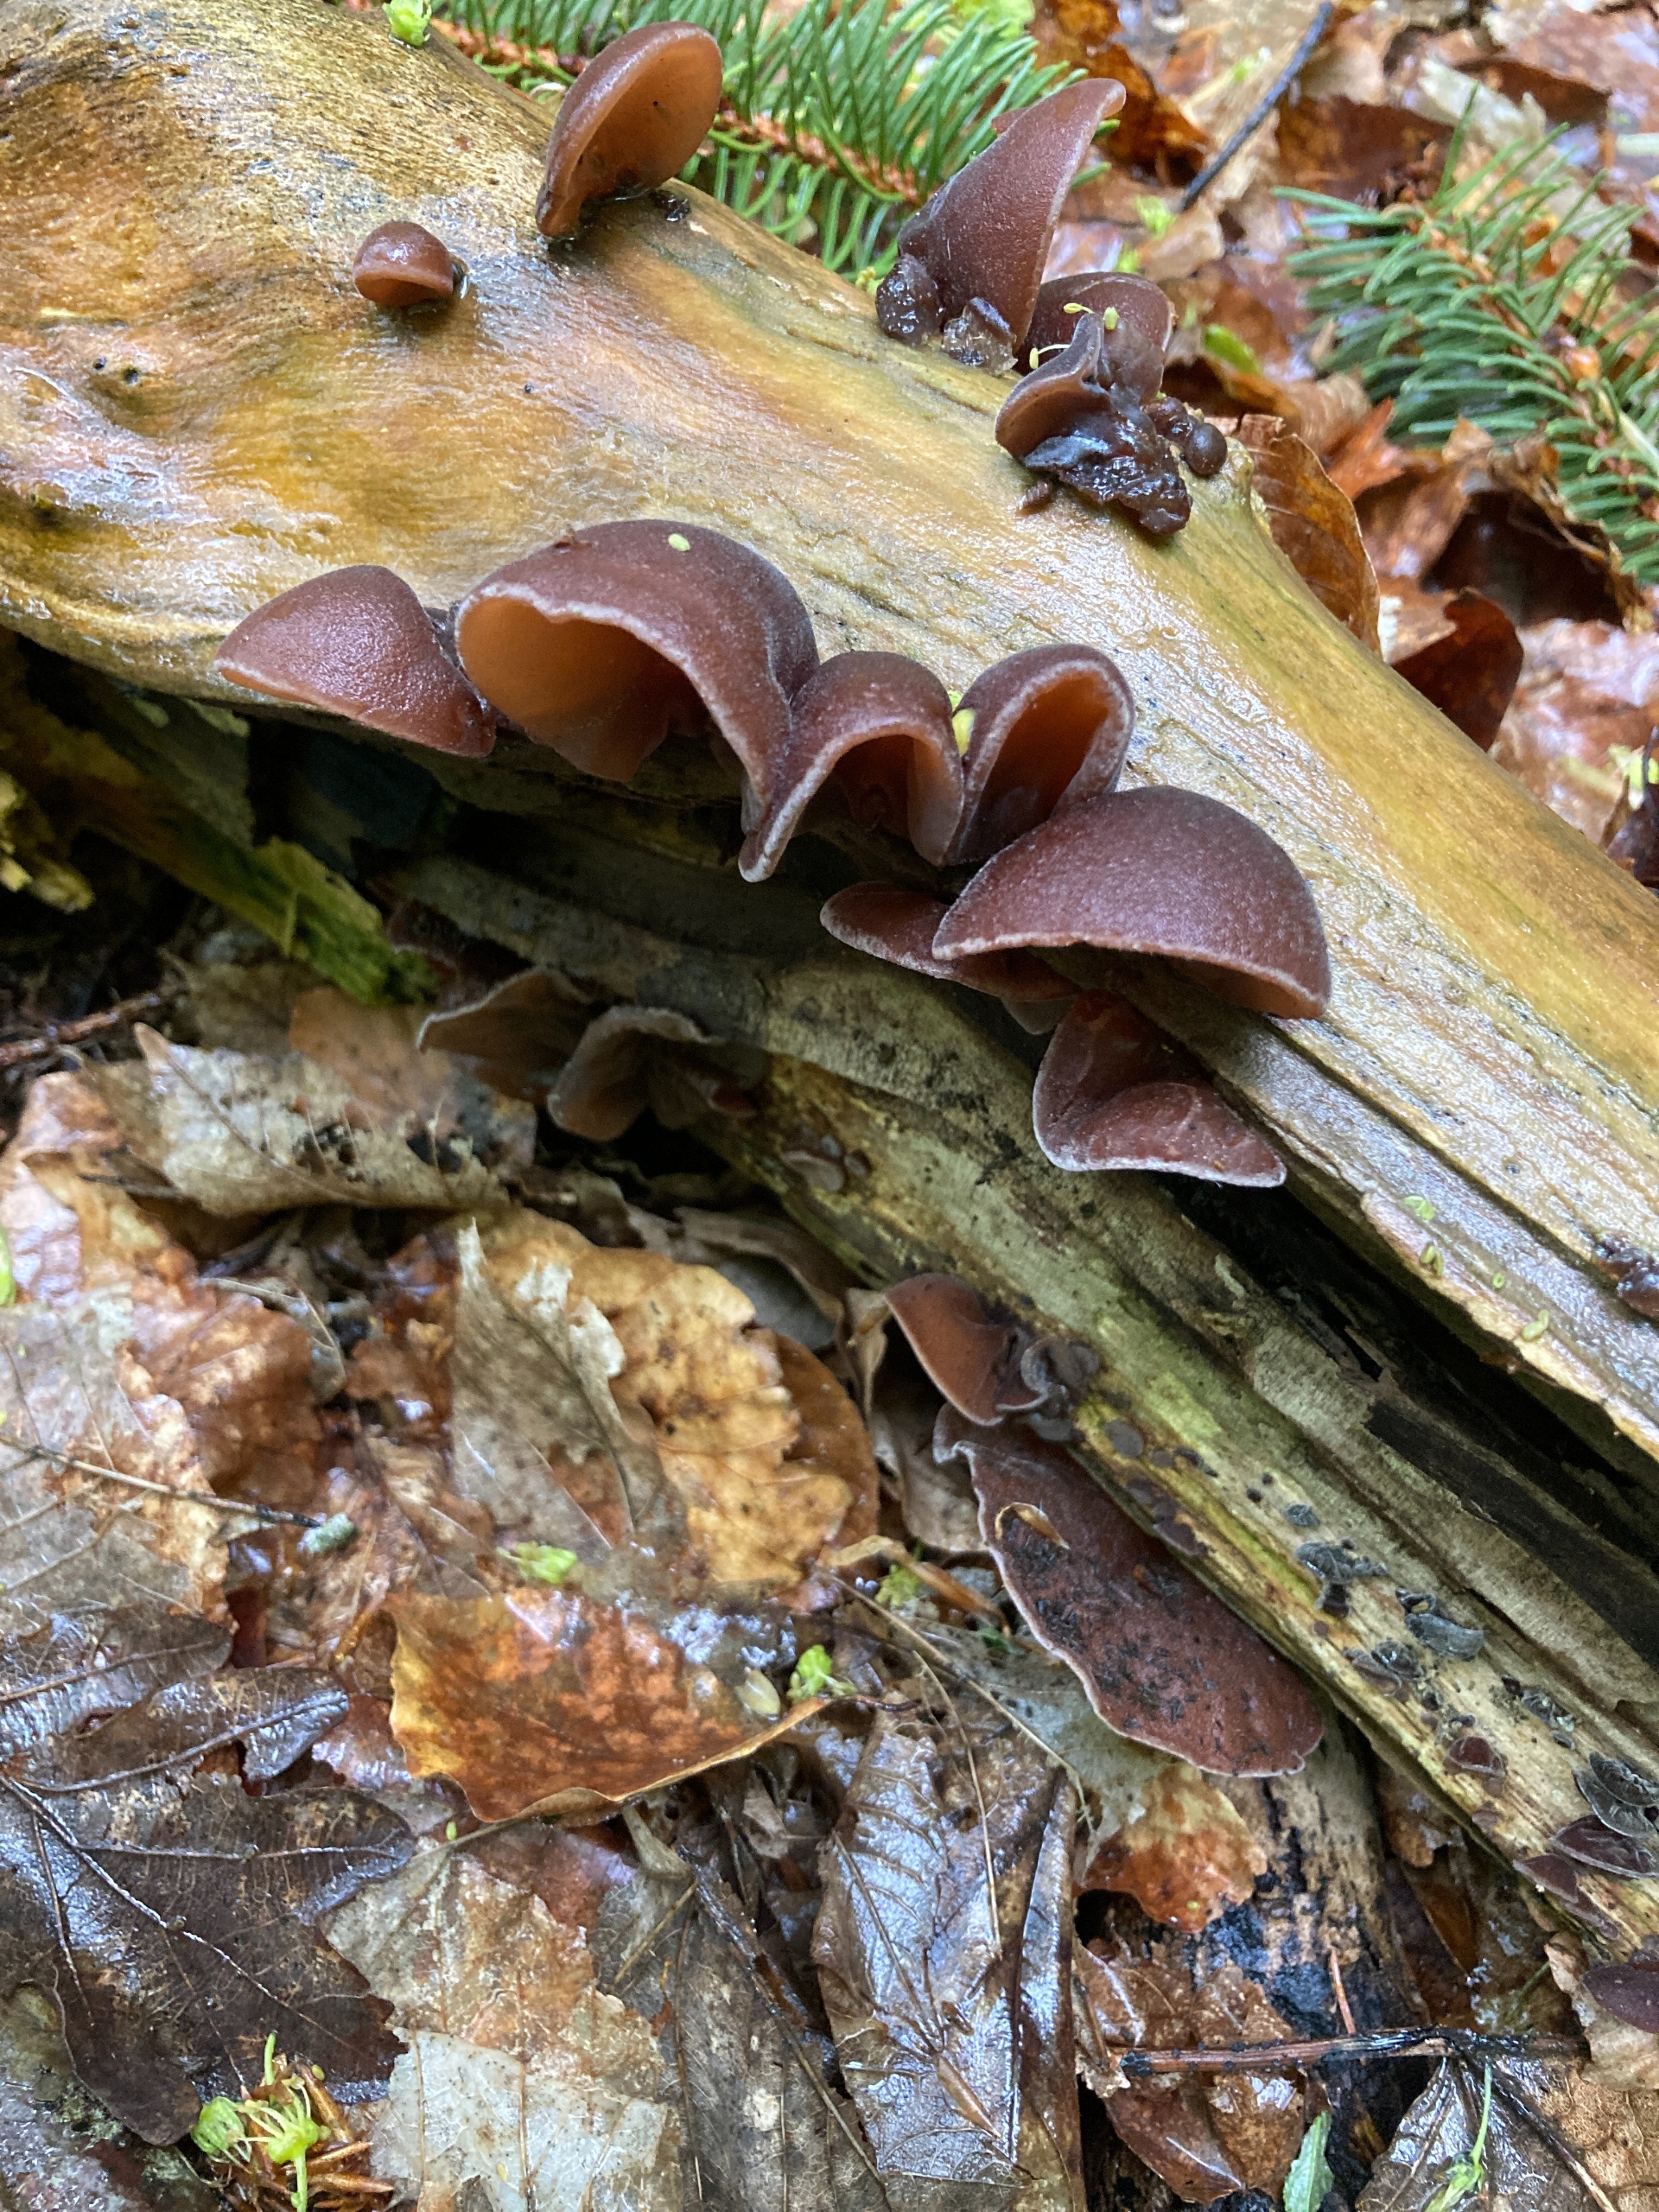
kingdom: Fungi
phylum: Basidiomycota
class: Agaricomycetes
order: Auriculariales
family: Auriculariaceae
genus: Auricularia
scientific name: Auricularia auricula-judae
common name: Almindelig judasøre
